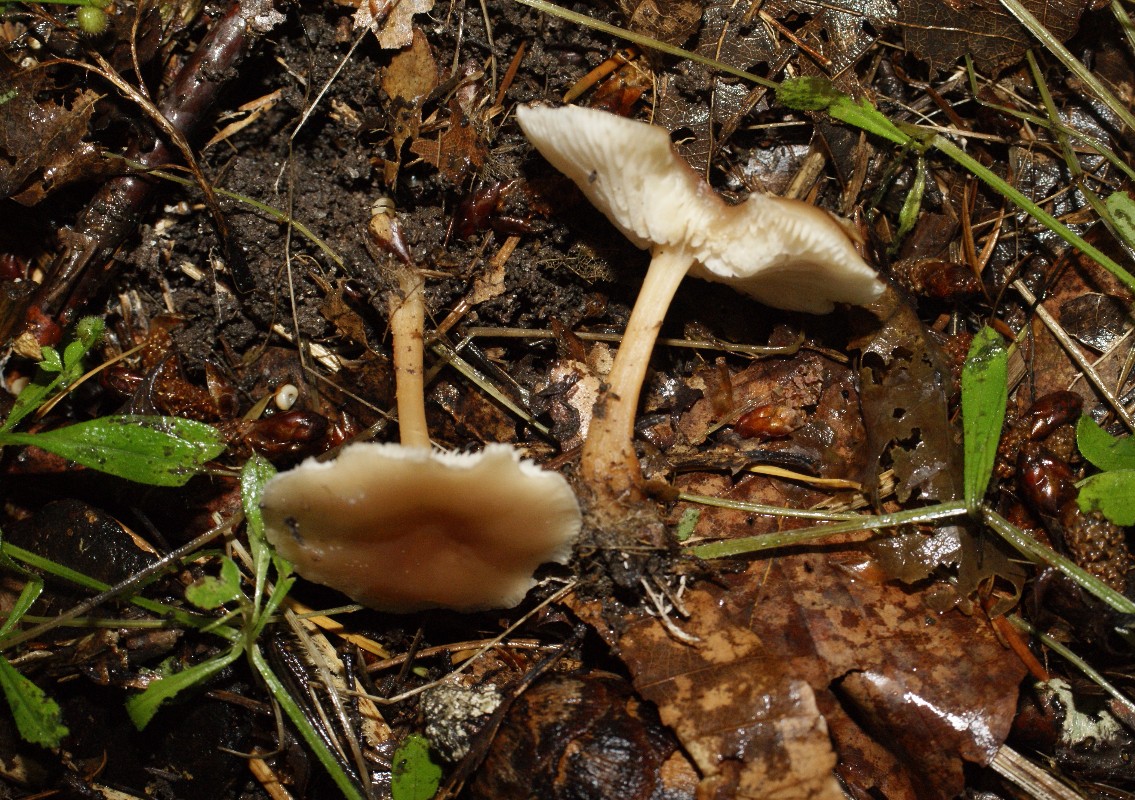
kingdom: Fungi
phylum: Basidiomycota
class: Agaricomycetes
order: Agaricales
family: Omphalotaceae
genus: Gymnopus
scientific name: Gymnopus dryophilus
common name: løv-fladhat
